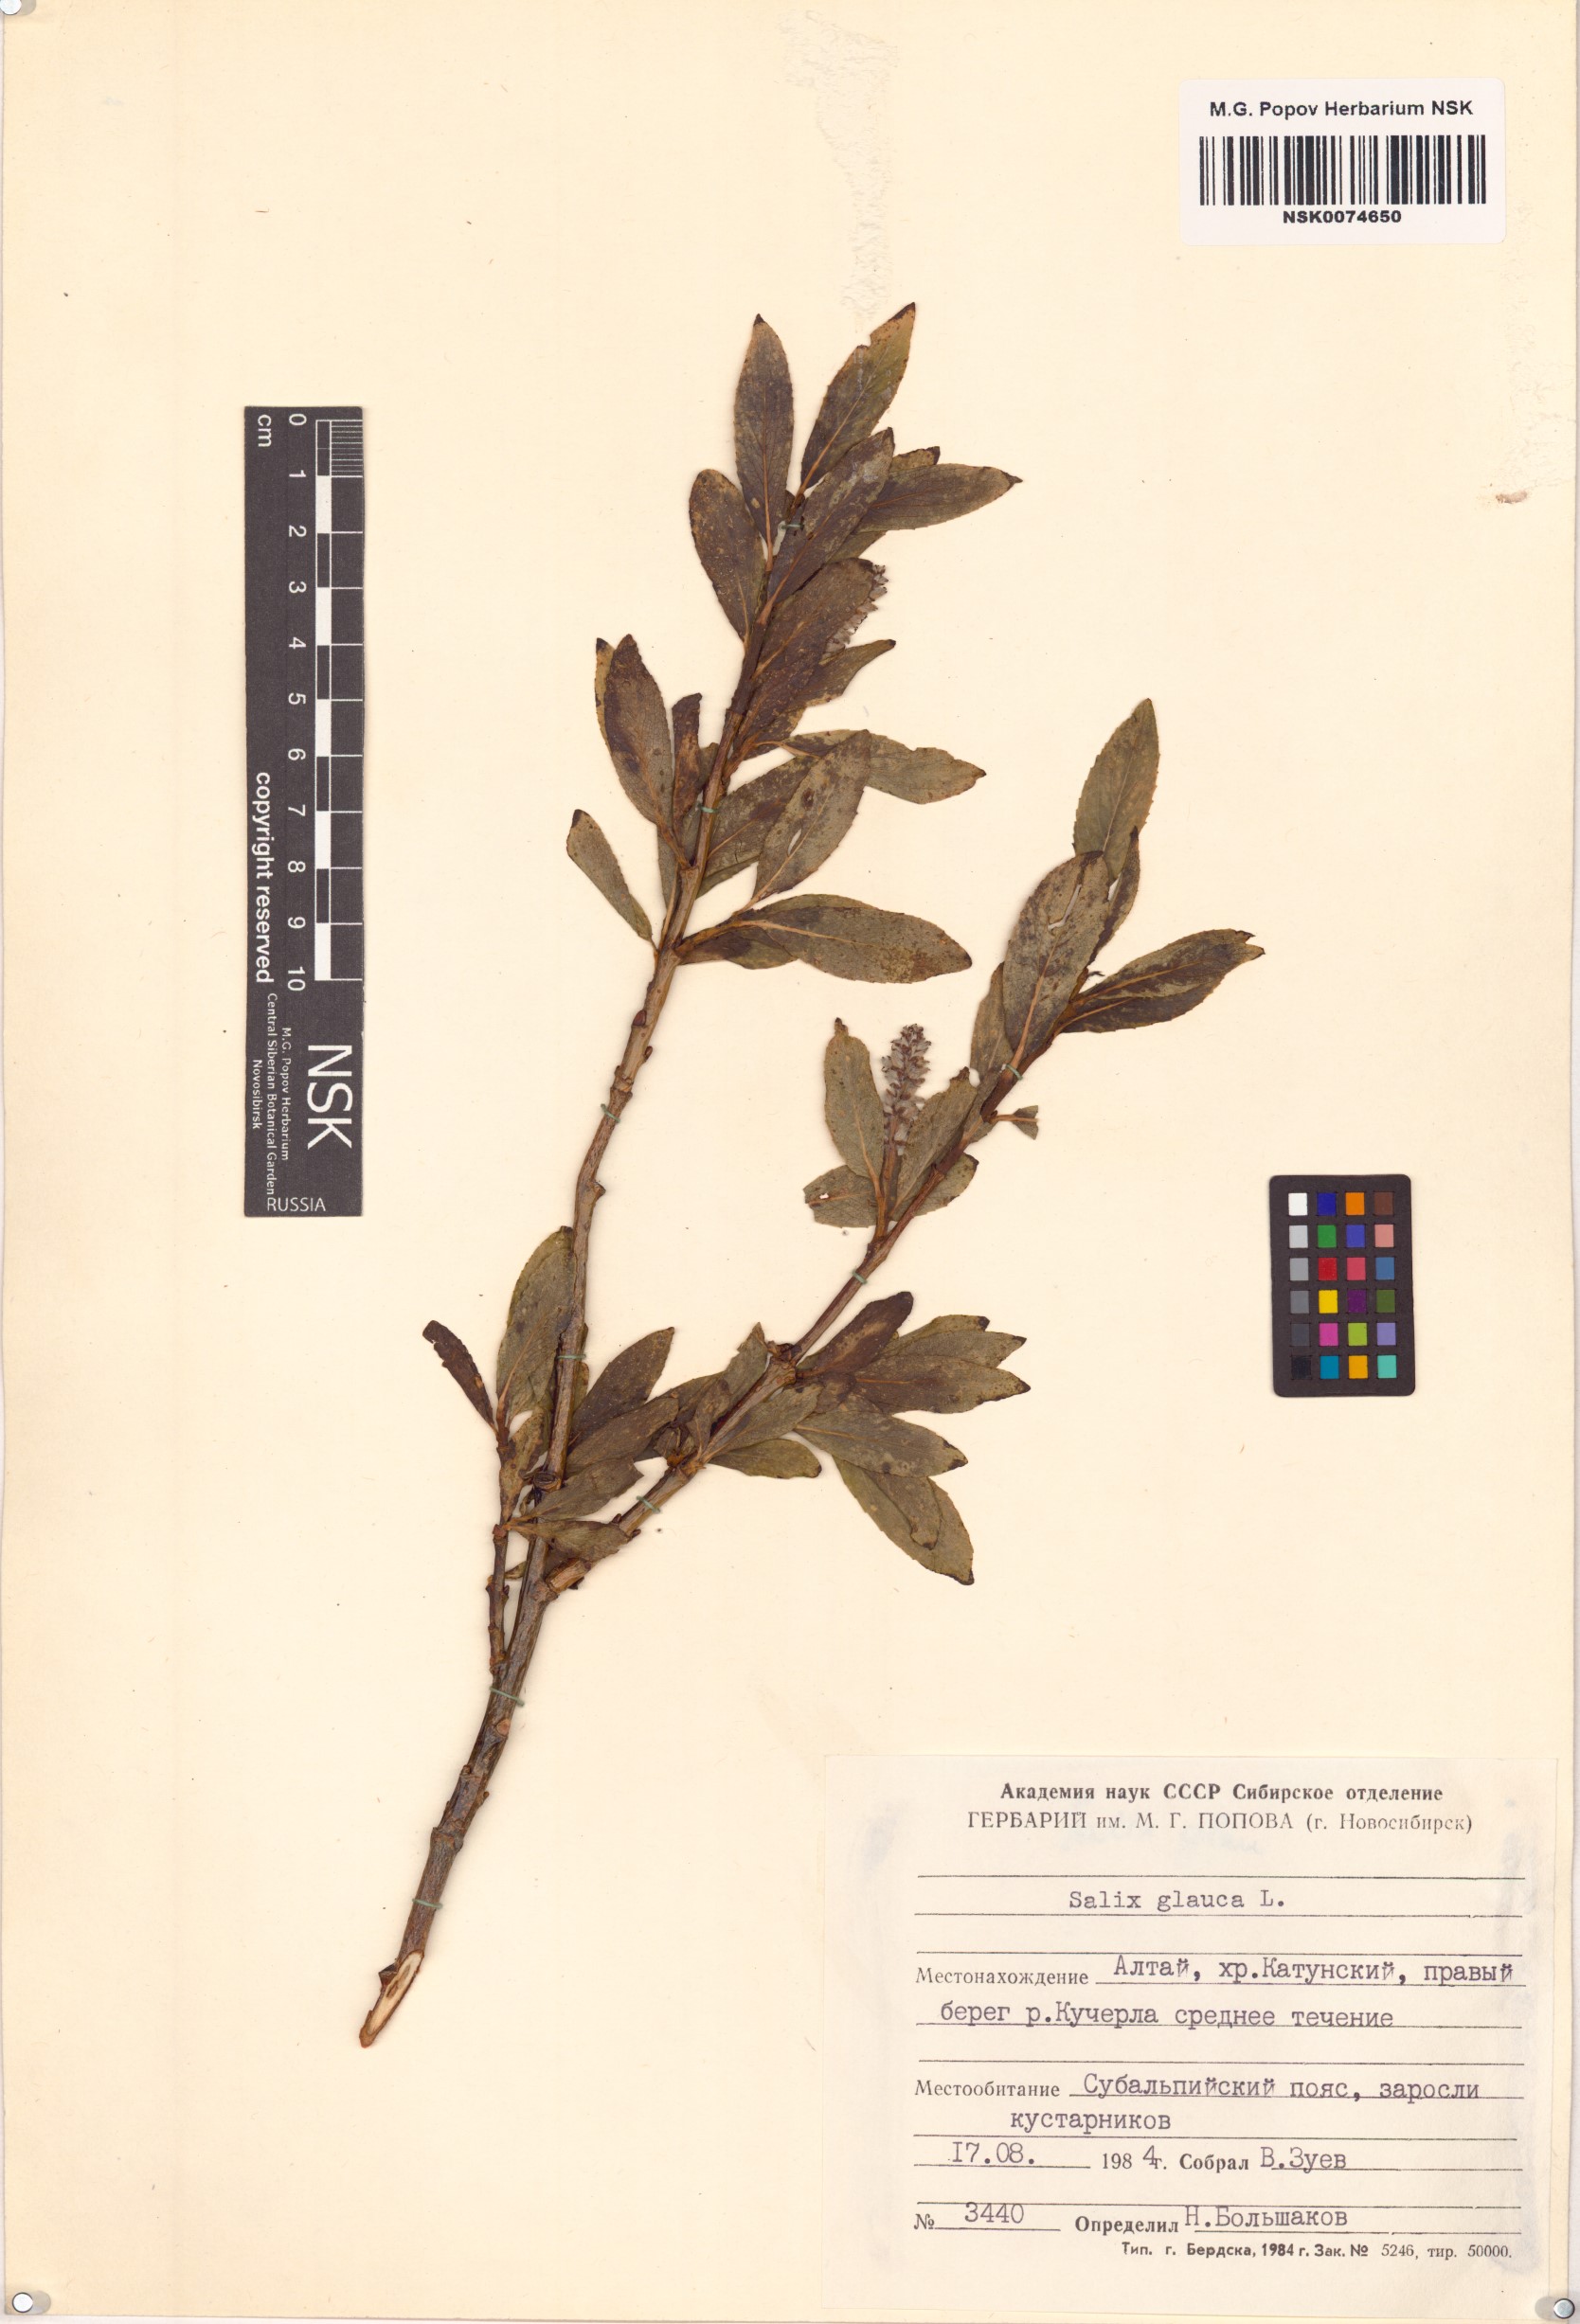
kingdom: Plantae
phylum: Tracheophyta
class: Magnoliopsida
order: Malpighiales
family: Salicaceae
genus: Salix
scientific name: Salix glauca
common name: Glaucous willow
